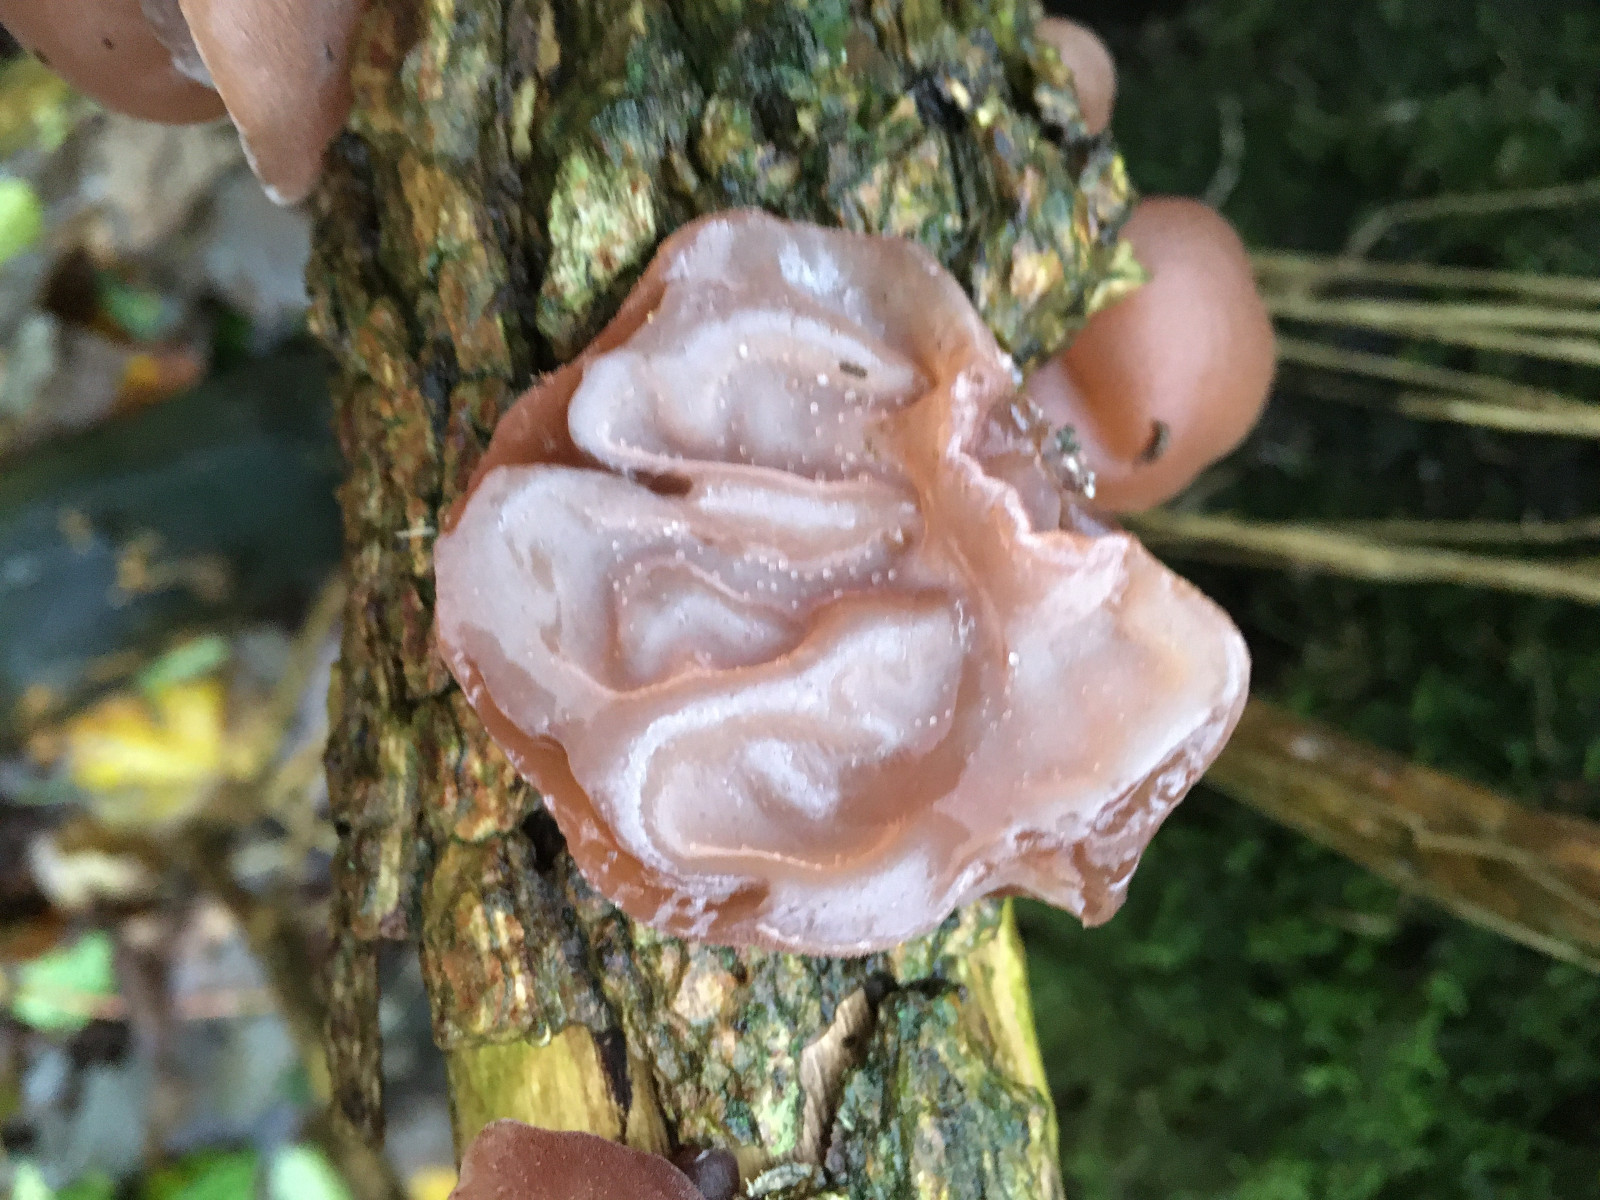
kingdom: Fungi
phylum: Basidiomycota
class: Agaricomycetes
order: Auriculariales
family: Auriculariaceae
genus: Auricularia
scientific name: Auricularia auricula-judae
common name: almindelig judasøre
